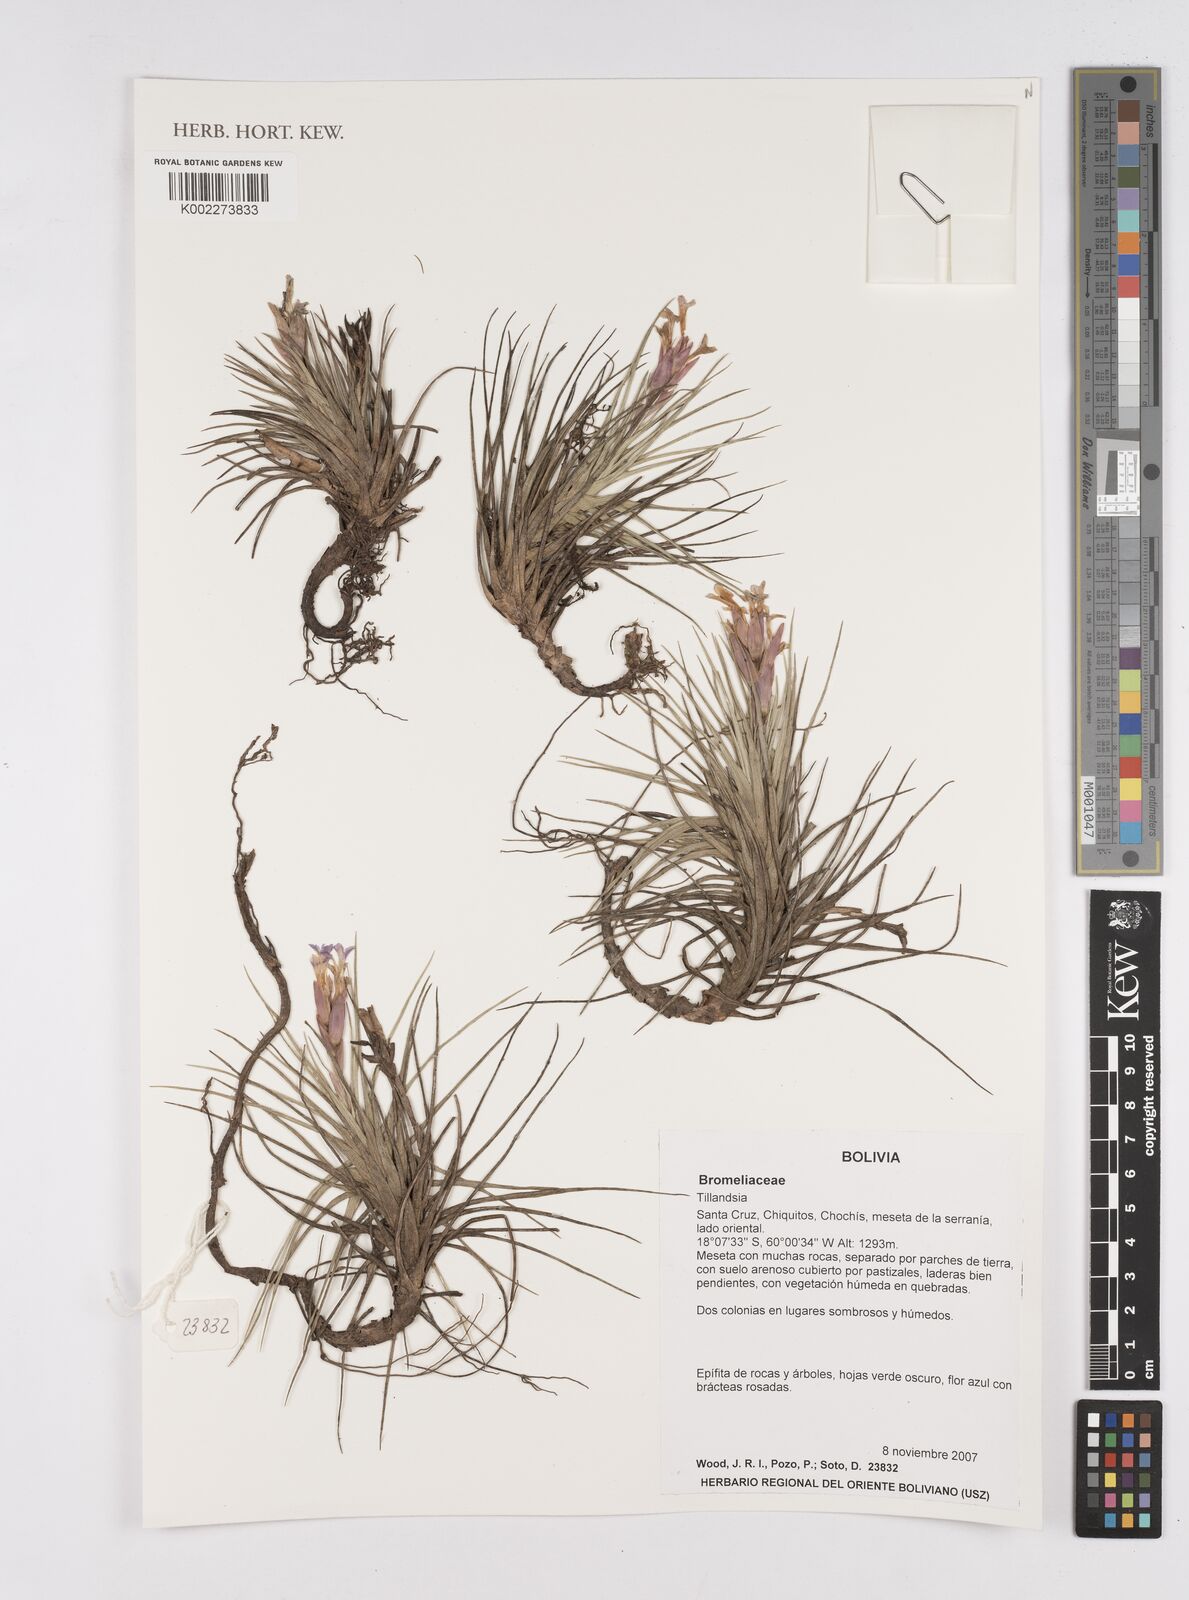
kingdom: Plantae
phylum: Tracheophyta
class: Liliopsida
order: Poales
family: Bromeliaceae
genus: Tillandsia
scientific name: Tillandsia
